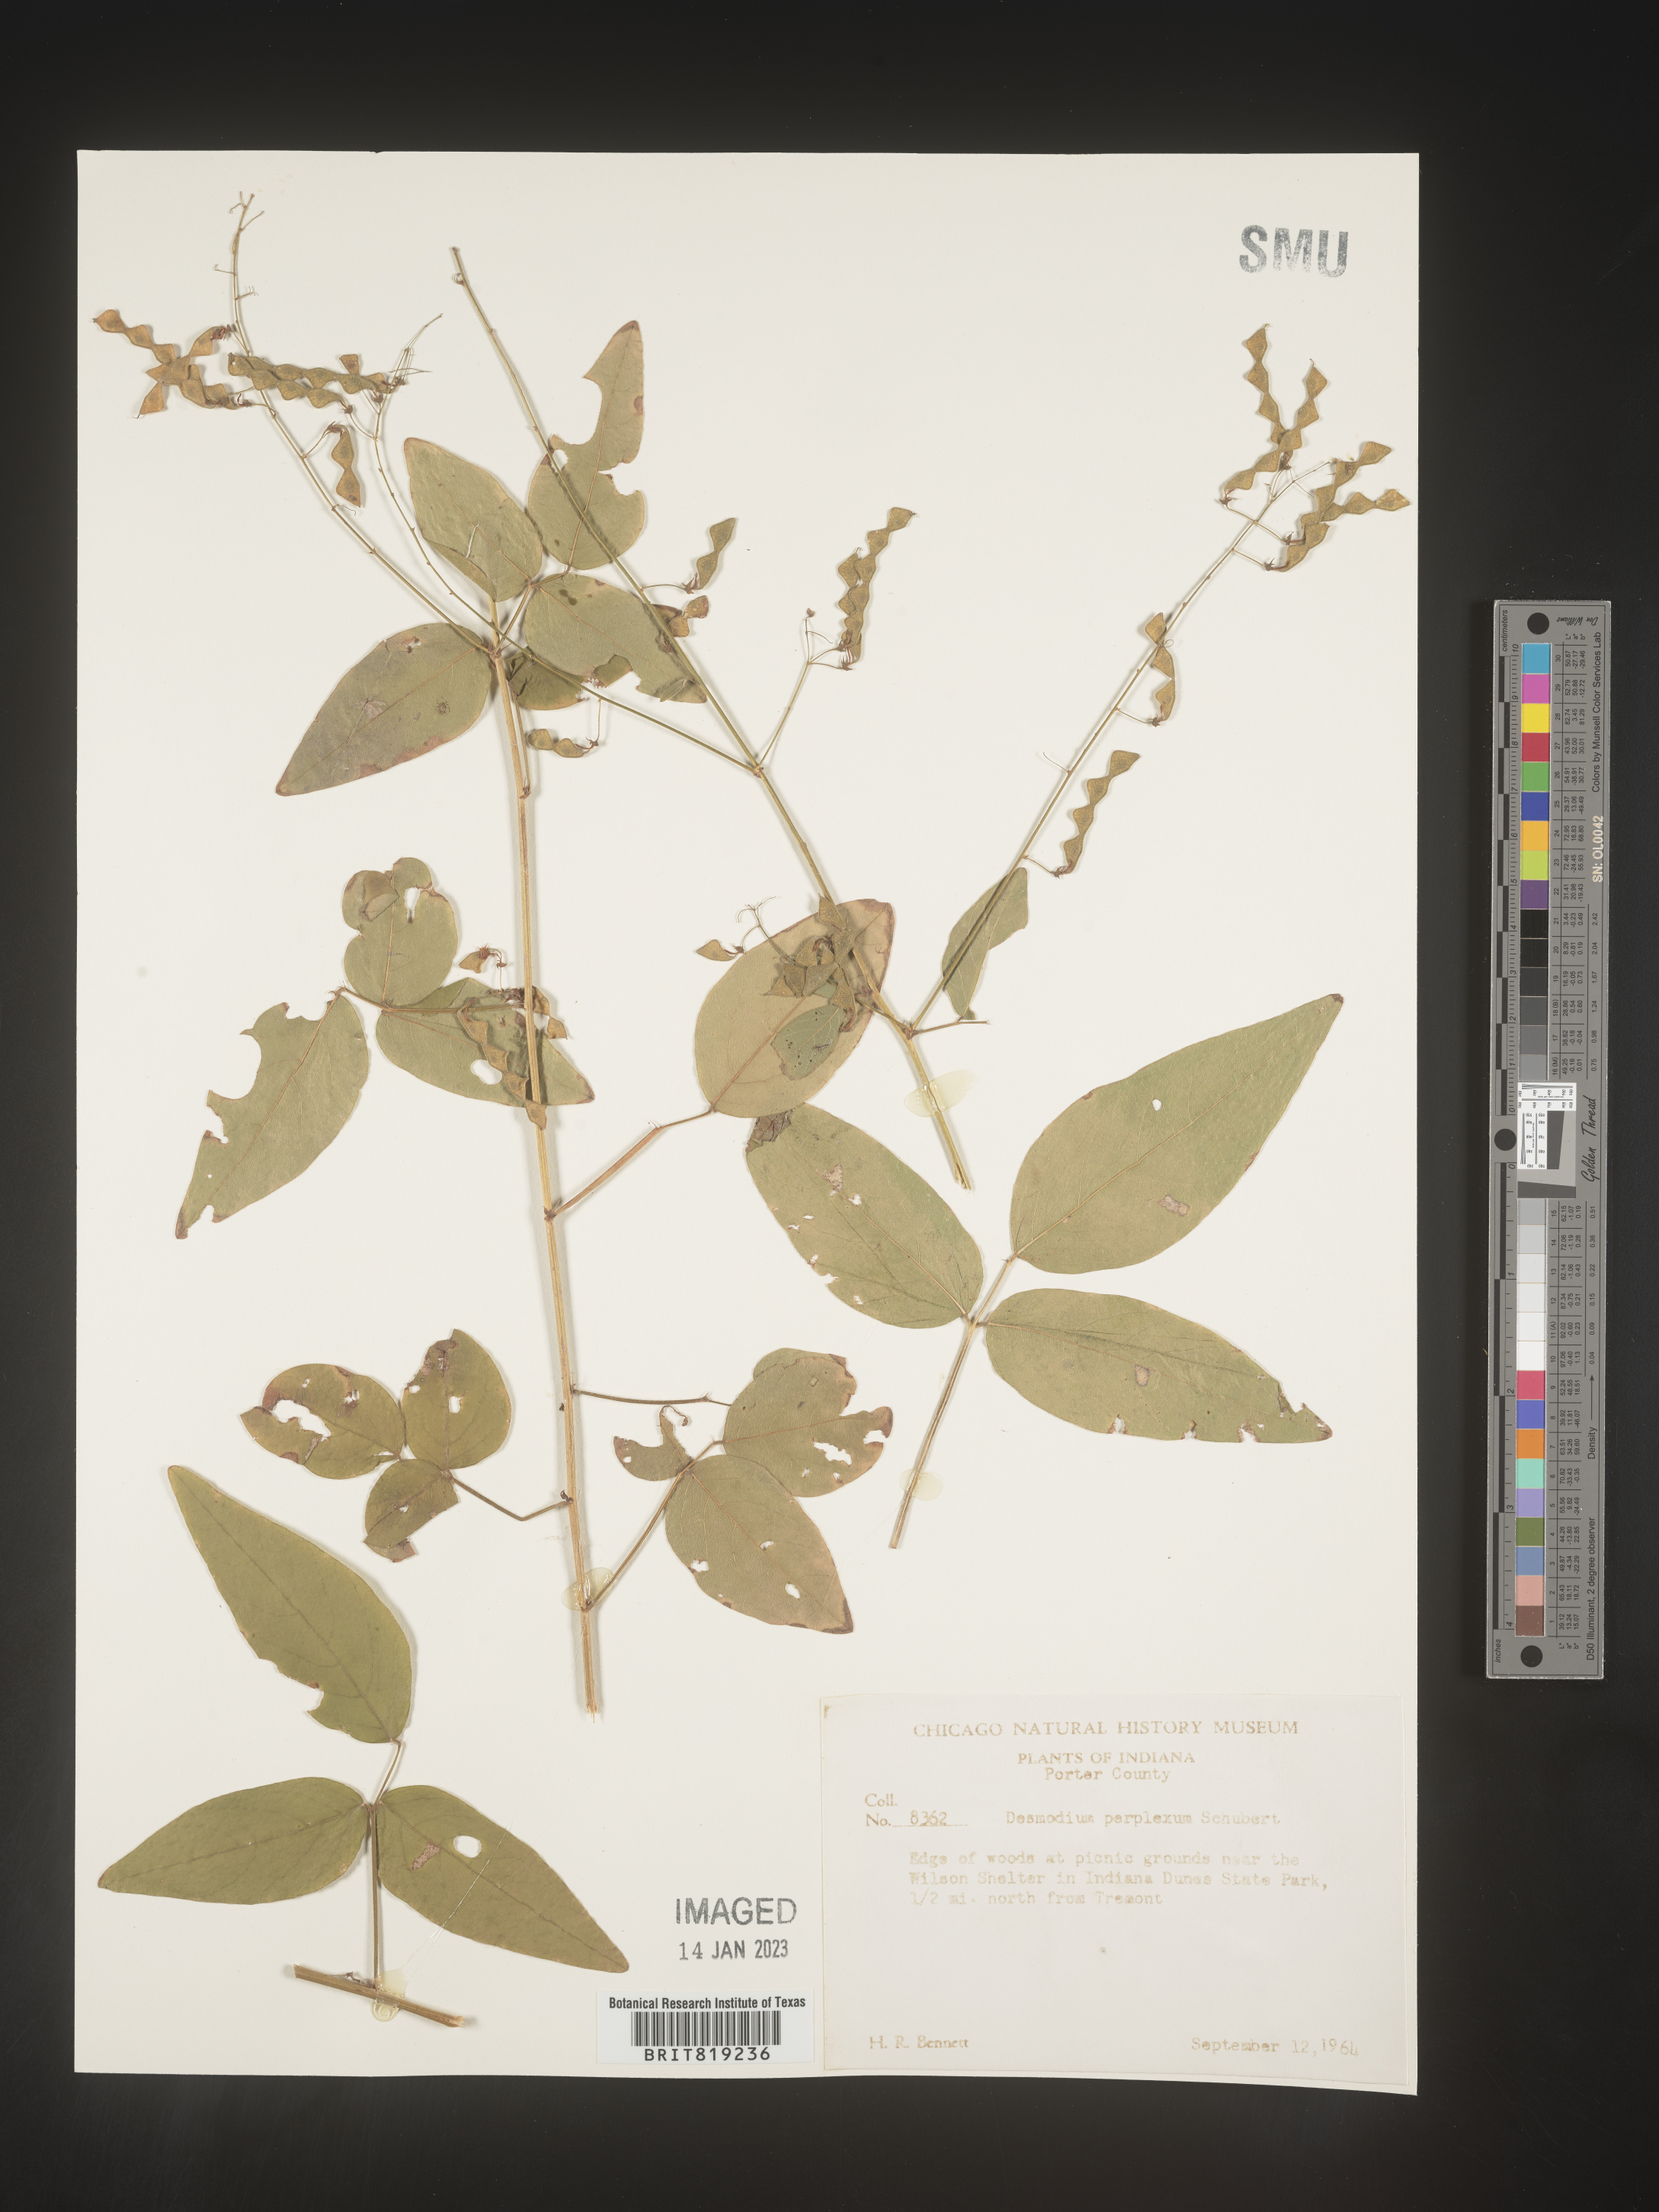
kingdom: Plantae
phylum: Tracheophyta
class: Magnoliopsida
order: Fabales
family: Fabaceae
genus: Desmodium
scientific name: Desmodium perplexum
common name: Perplexed tick trefoil
